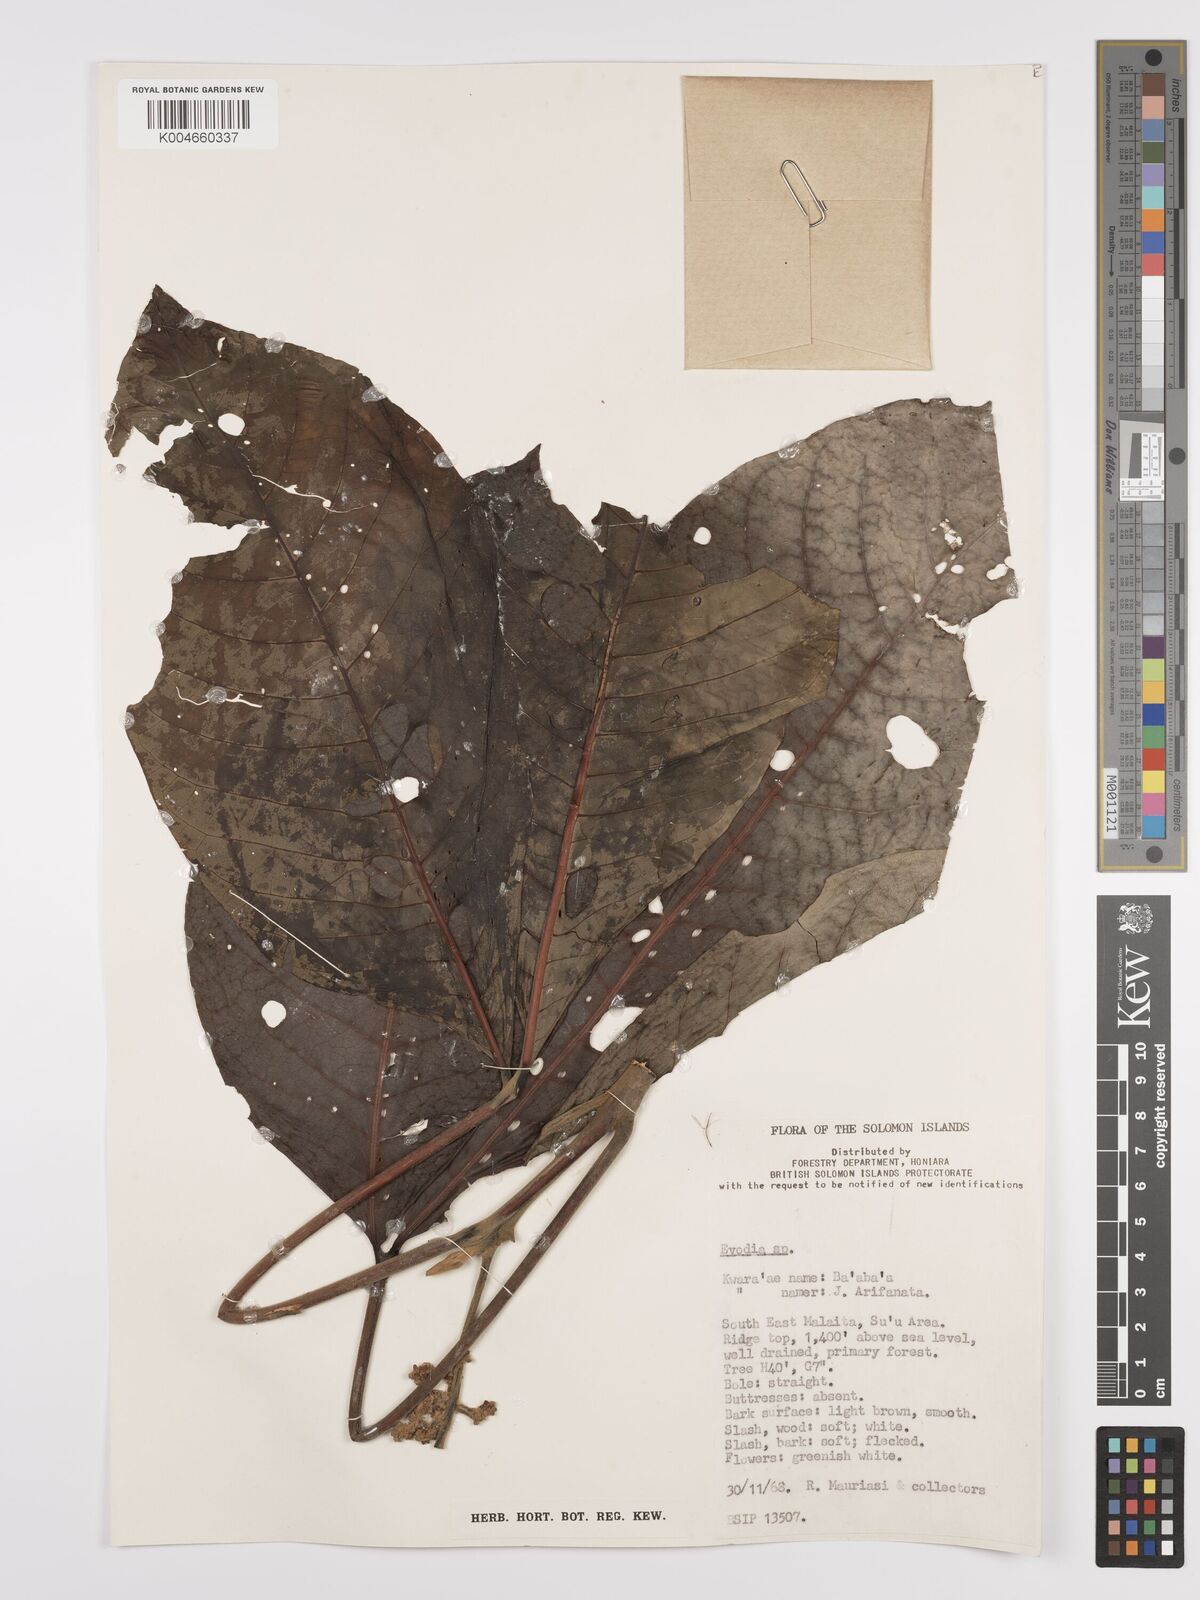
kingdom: Plantae
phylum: Tracheophyta
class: Magnoliopsida
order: Sapindales
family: Rutaceae
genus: Euodia
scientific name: Euodia
